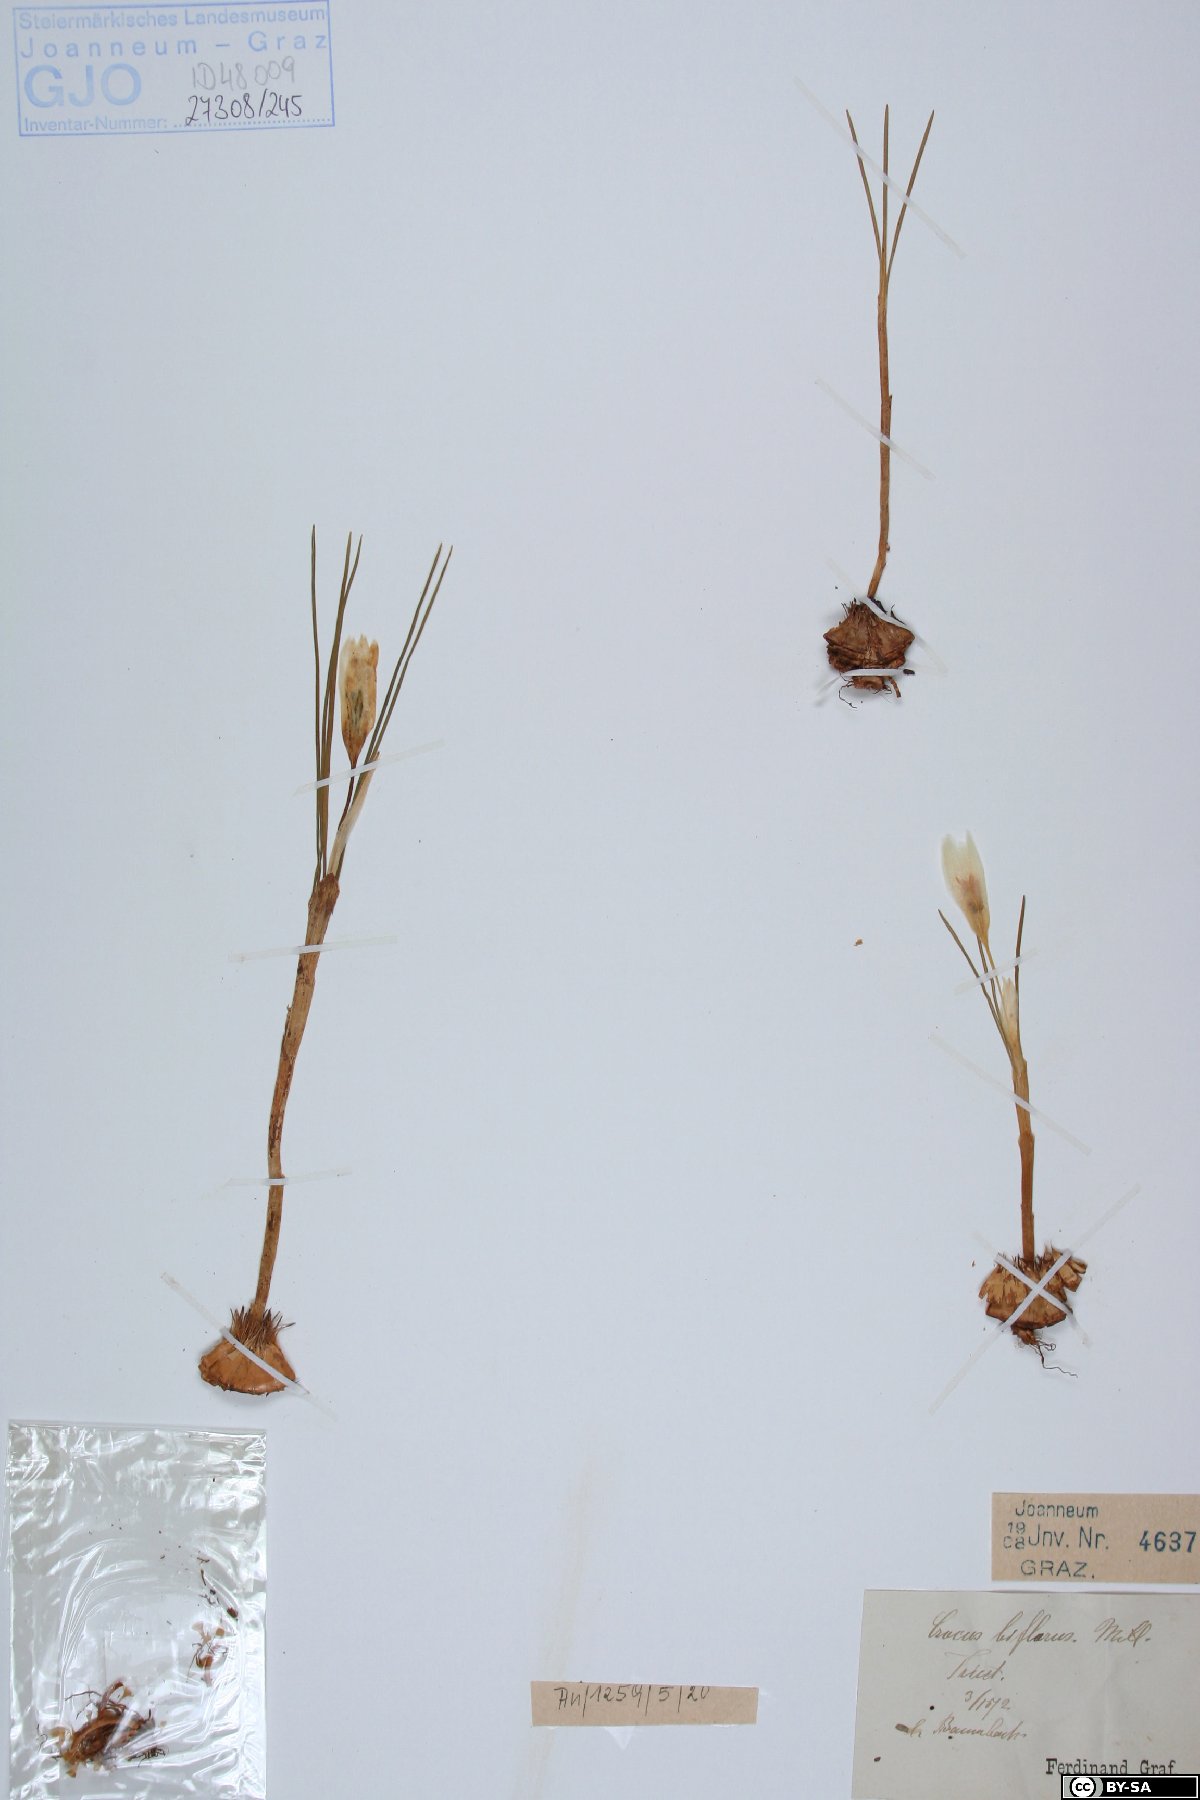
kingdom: Plantae
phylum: Tracheophyta
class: Liliopsida
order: Asparagales
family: Iridaceae
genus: Crocus
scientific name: Crocus biflorus
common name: Silvery crocus
